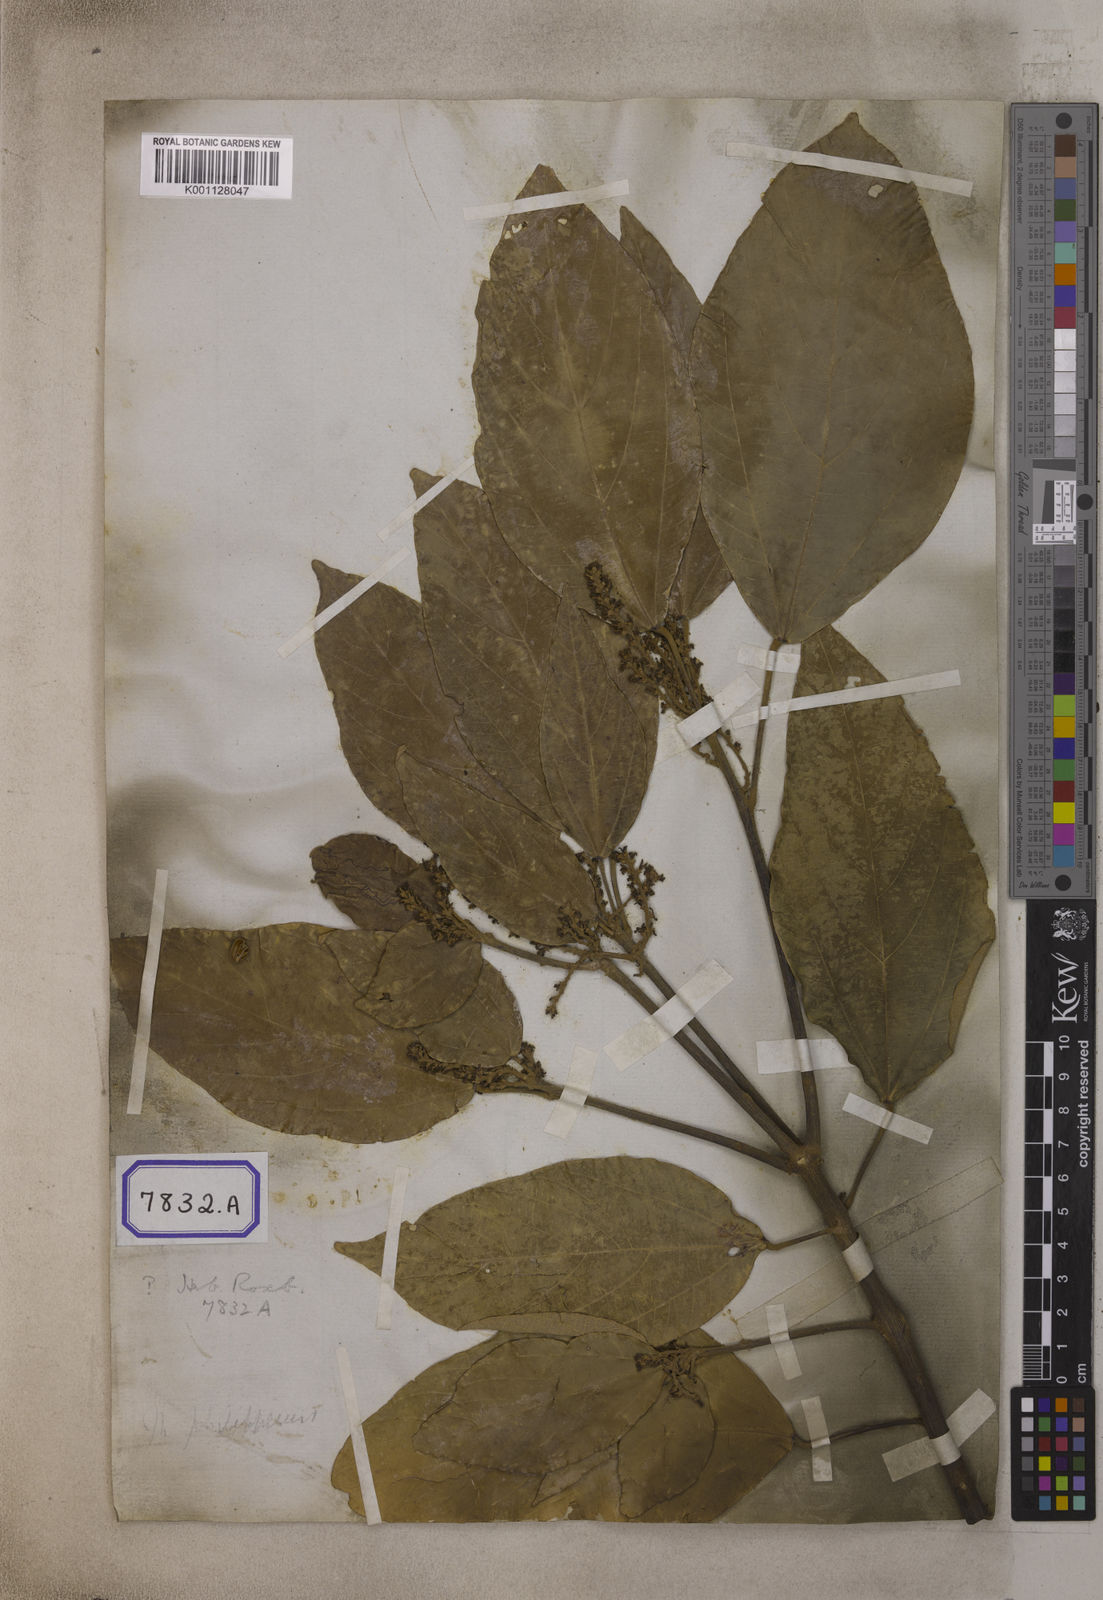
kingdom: Plantae
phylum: Tracheophyta
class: Magnoliopsida
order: Malpighiales
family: Euphorbiaceae
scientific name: Euphorbiaceae
